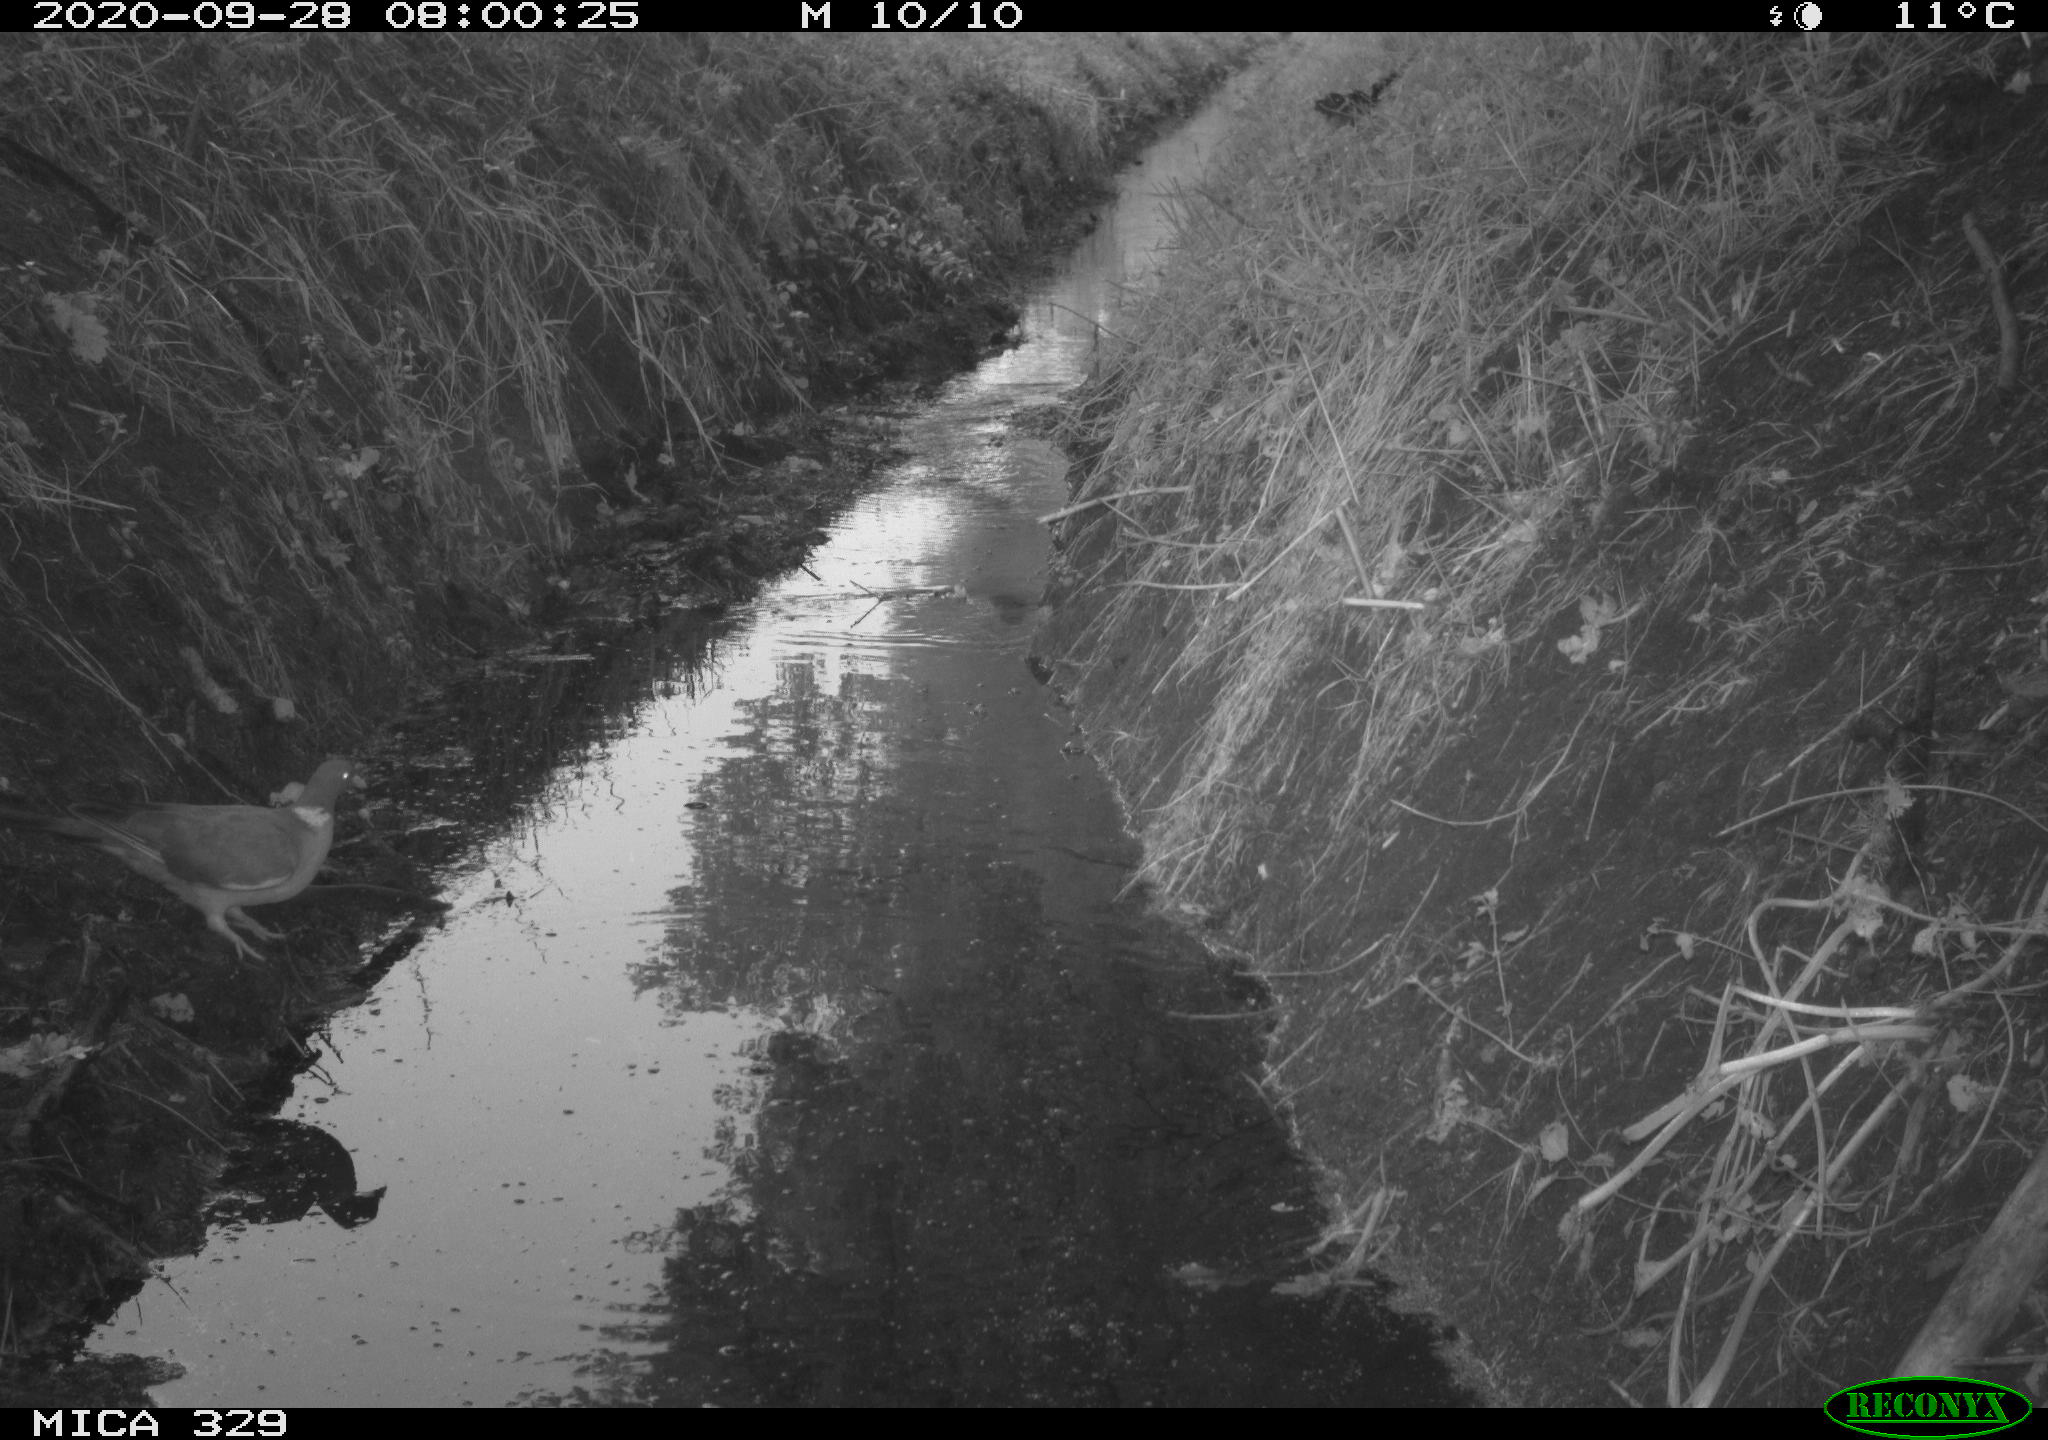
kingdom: Animalia
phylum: Chordata
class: Aves
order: Columbiformes
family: Columbidae
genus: Columba
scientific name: Columba palumbus
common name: Common wood pigeon
